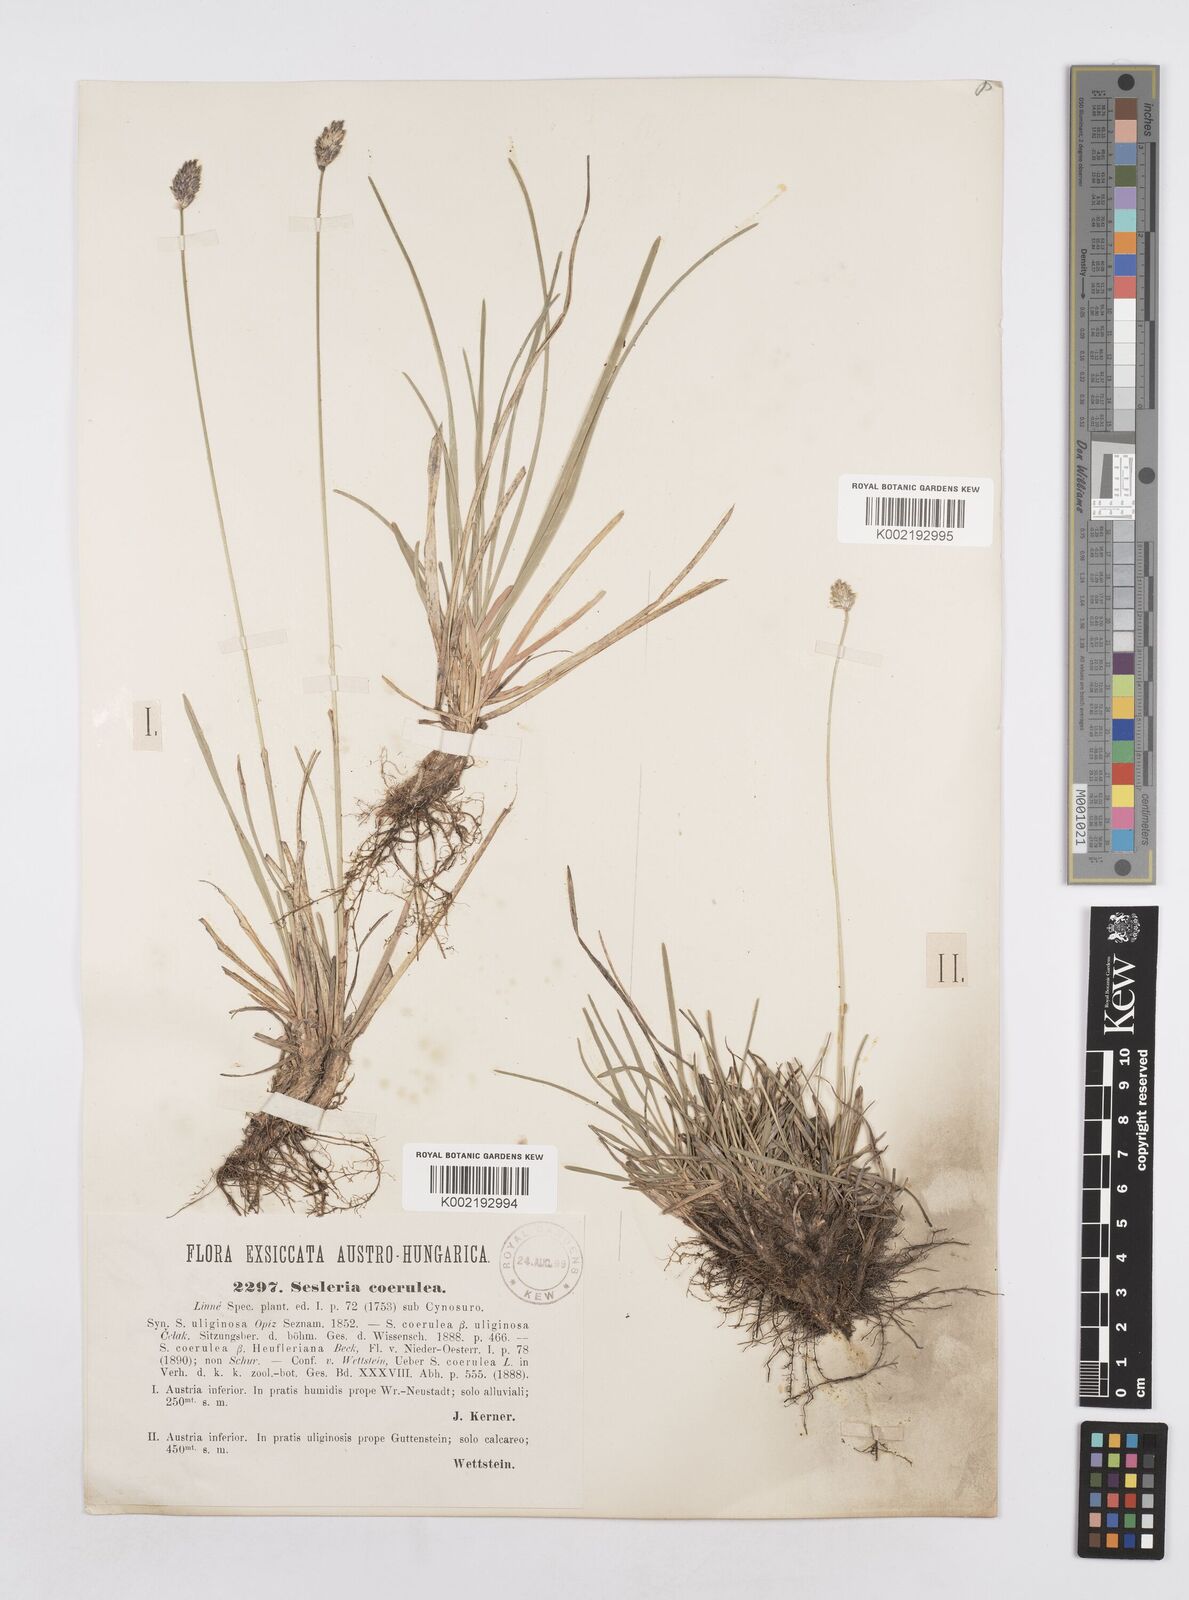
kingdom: Plantae
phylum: Tracheophyta
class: Liliopsida
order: Poales
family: Poaceae
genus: Sesleria
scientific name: Sesleria caerulea
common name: Blue moor-grass
